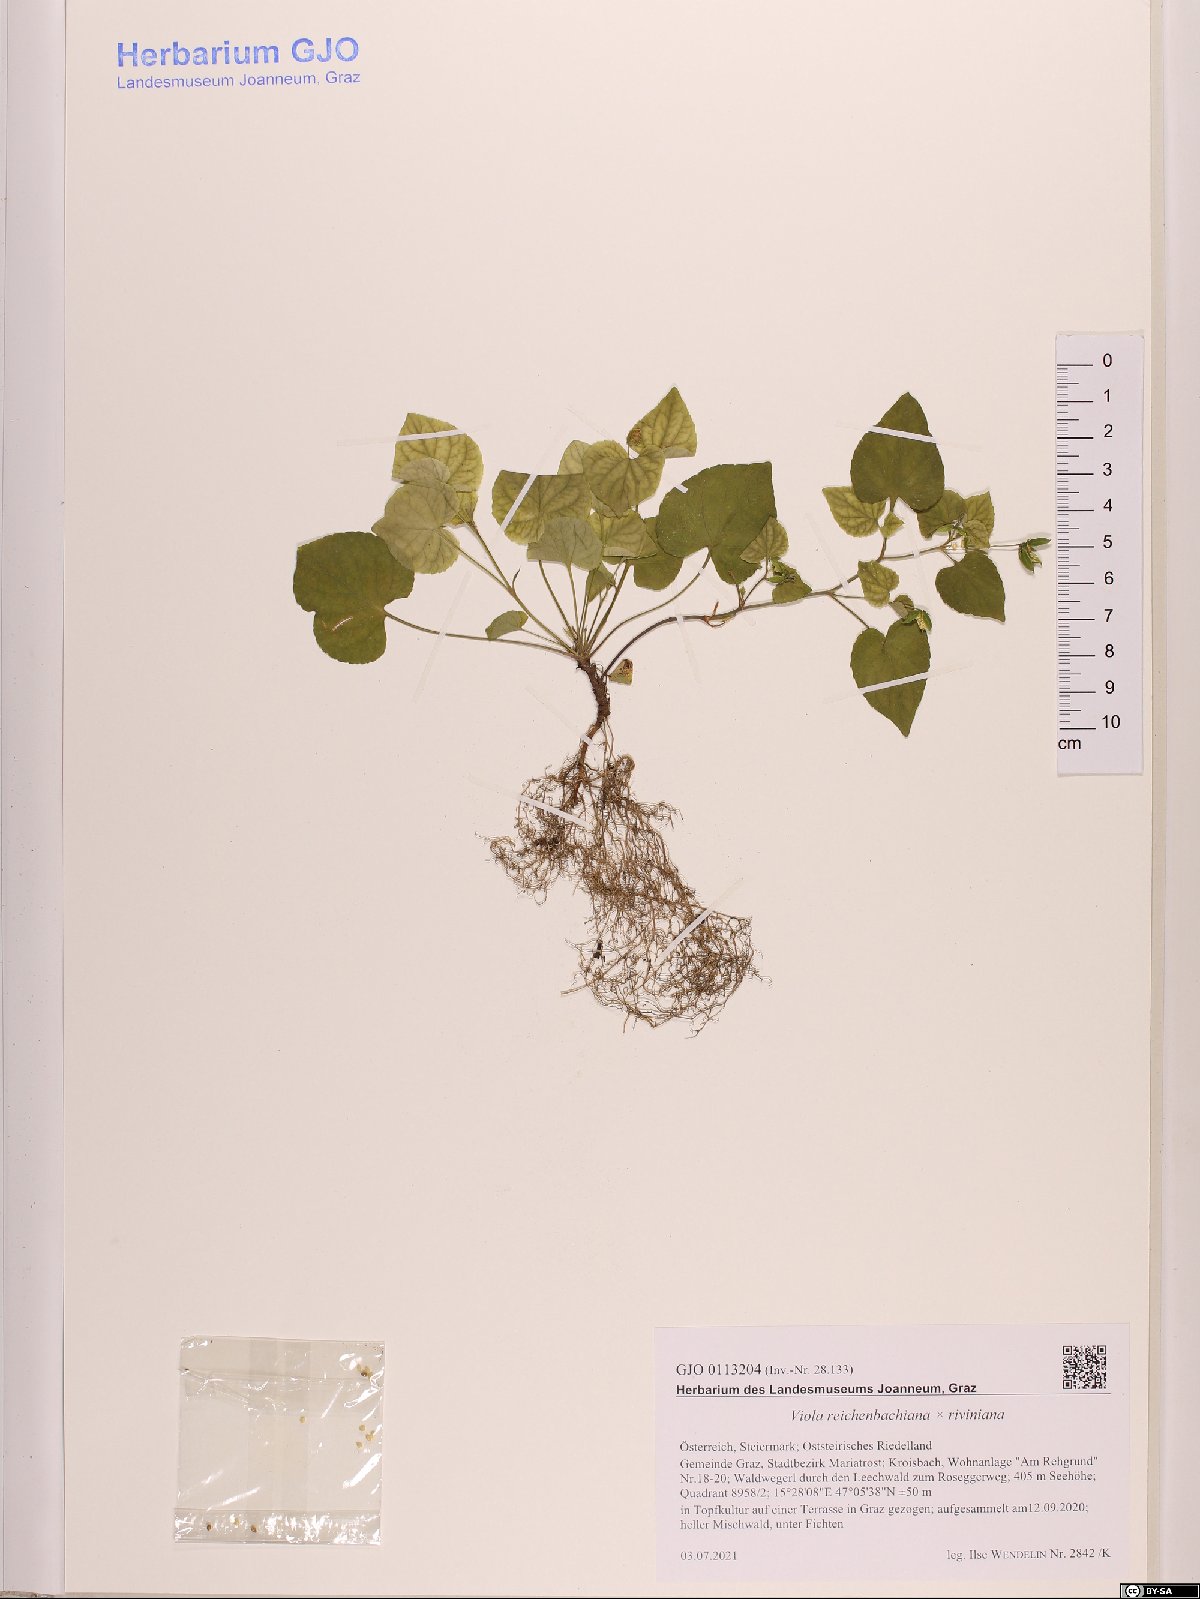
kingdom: Plantae
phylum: Tracheophyta
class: Magnoliopsida
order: Malpighiales
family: Violaceae
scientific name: Violaceae
